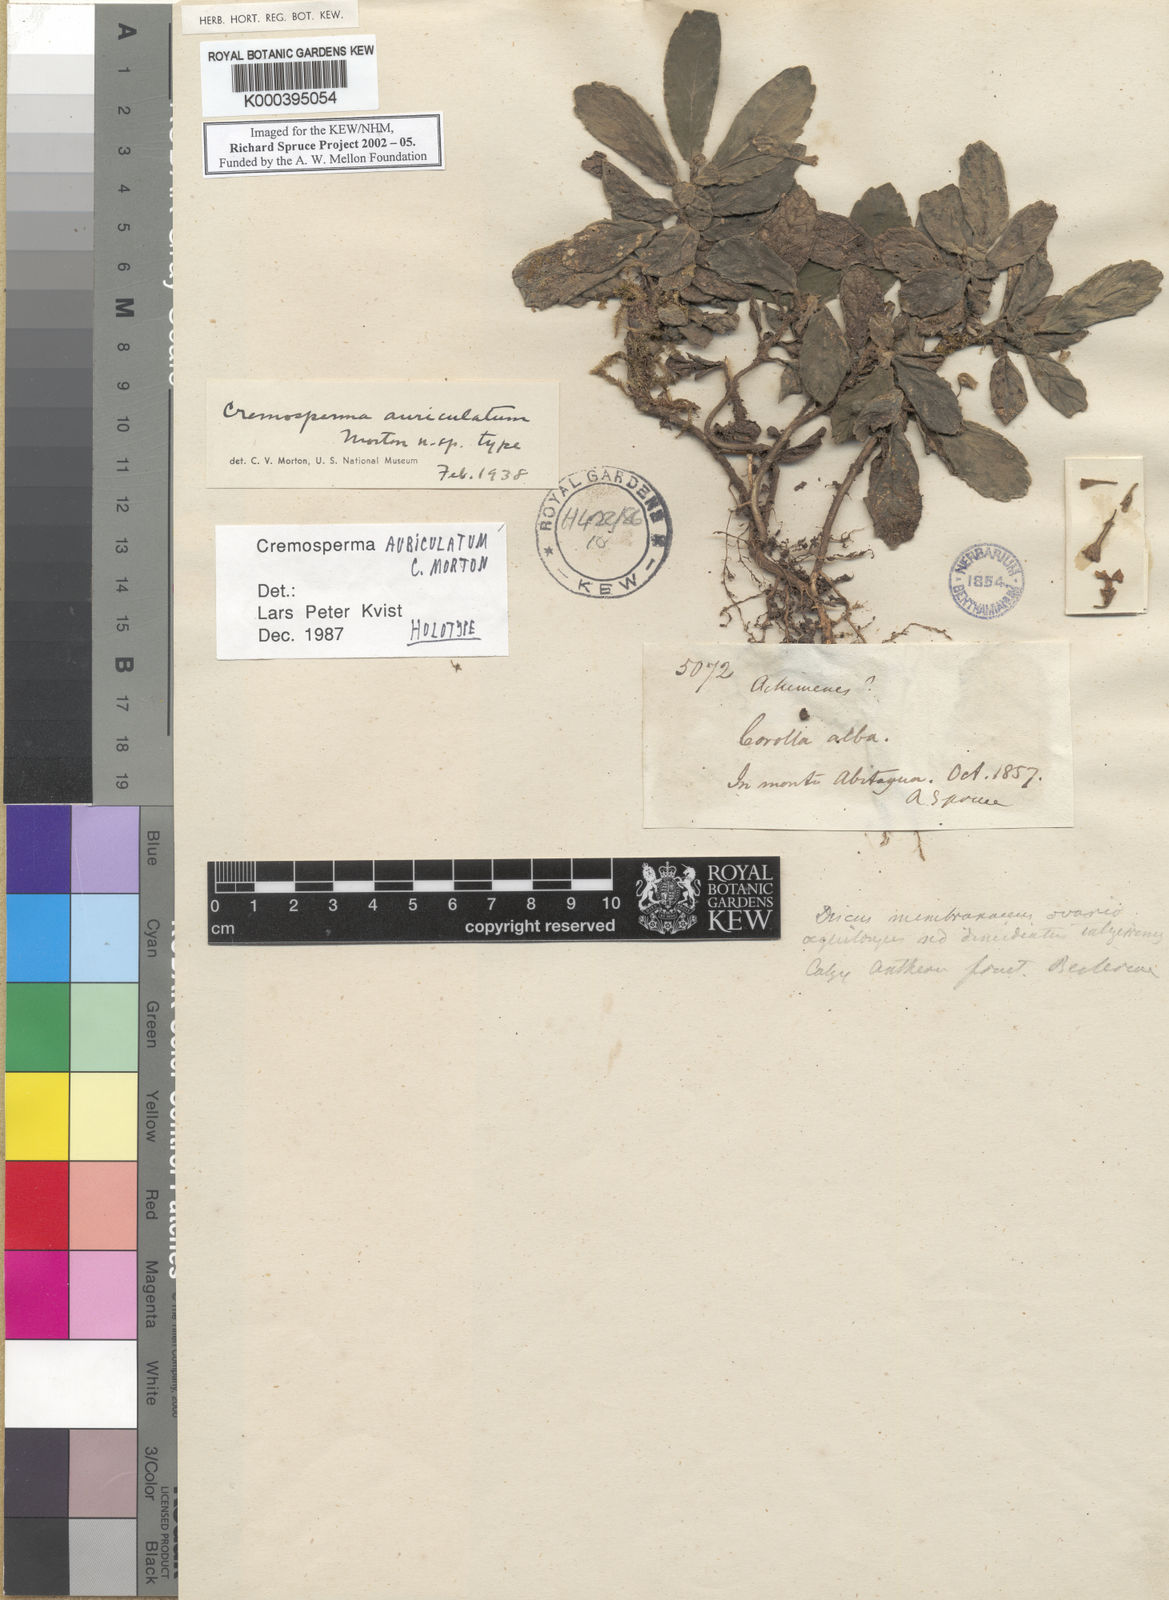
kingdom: Plantae
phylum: Tracheophyta
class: Magnoliopsida
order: Lamiales
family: Gesneriaceae
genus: Cremospermopsis
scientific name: Cremospermopsis cestroides
